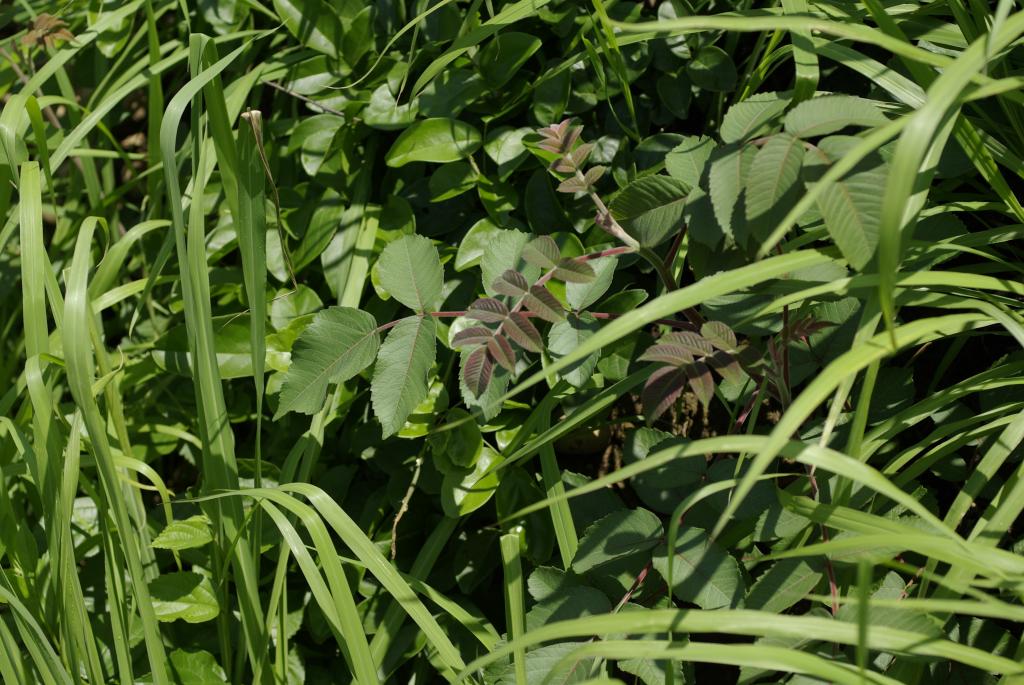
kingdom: Plantae
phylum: Tracheophyta
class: Magnoliopsida
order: Sapindales
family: Anacardiaceae
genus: Rhus
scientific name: Rhus chinensis
